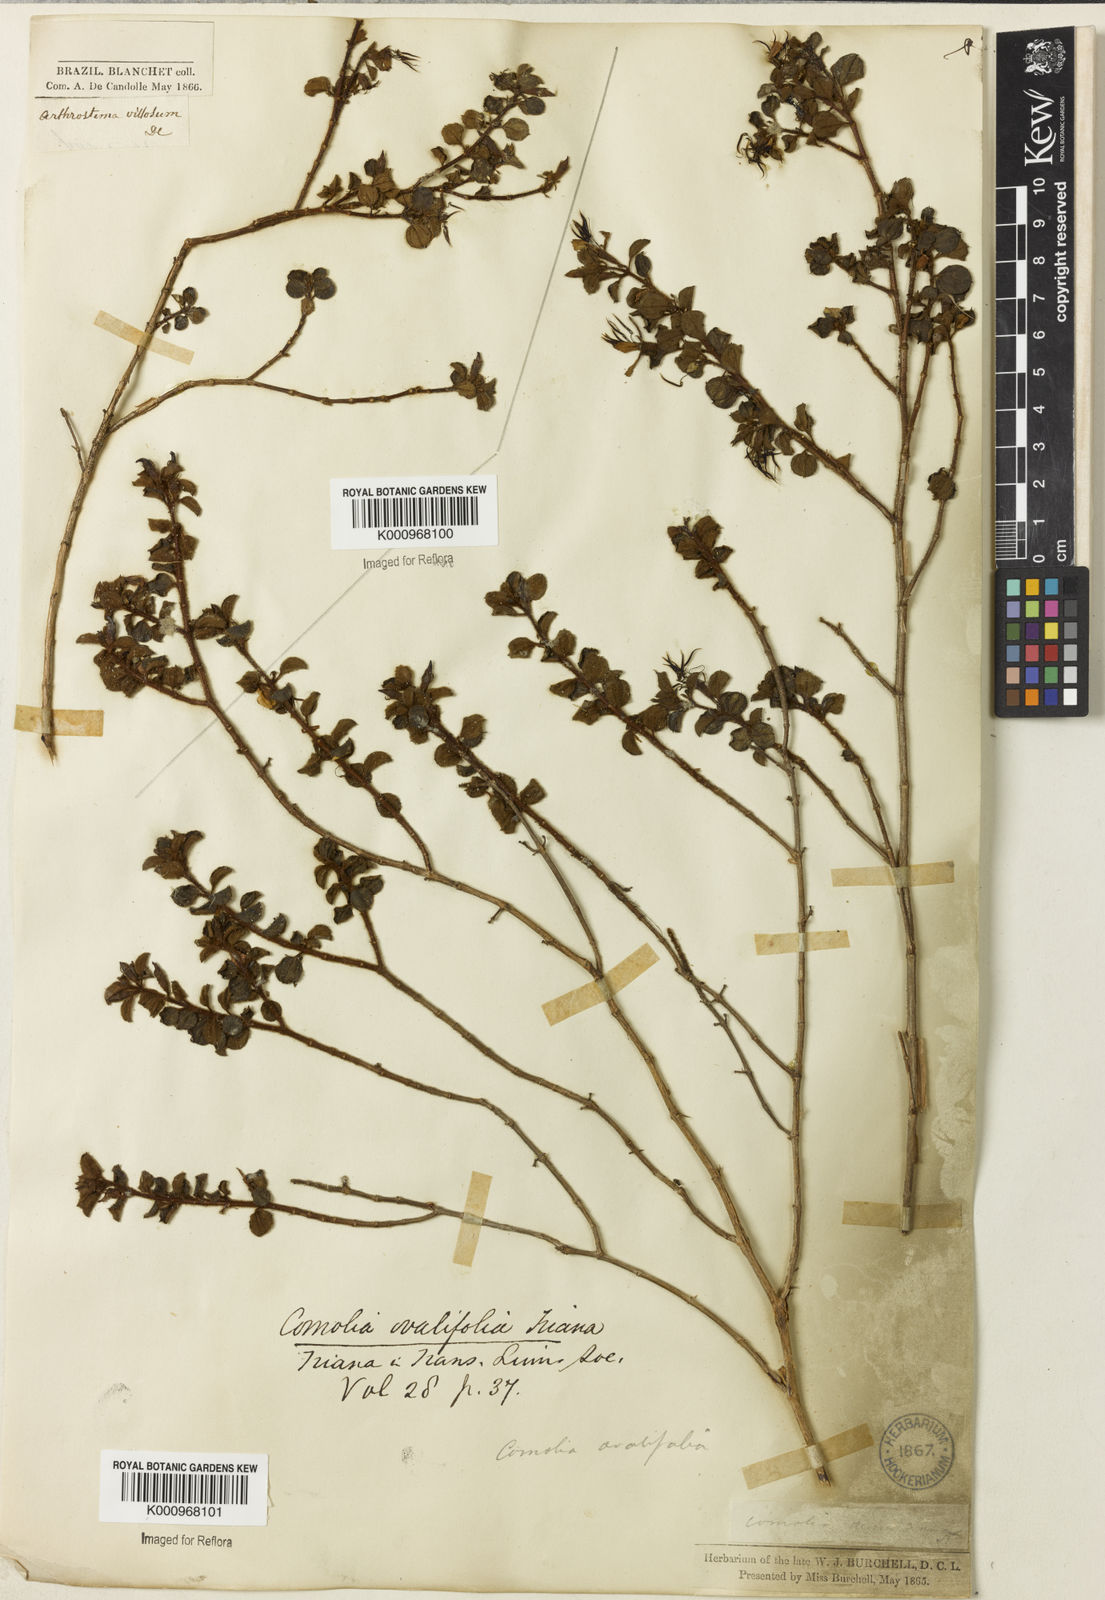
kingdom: Plantae
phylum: Tracheophyta
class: Magnoliopsida
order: Myrtales
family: Melastomataceae
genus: Comolia
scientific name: Comolia ovalifolia
